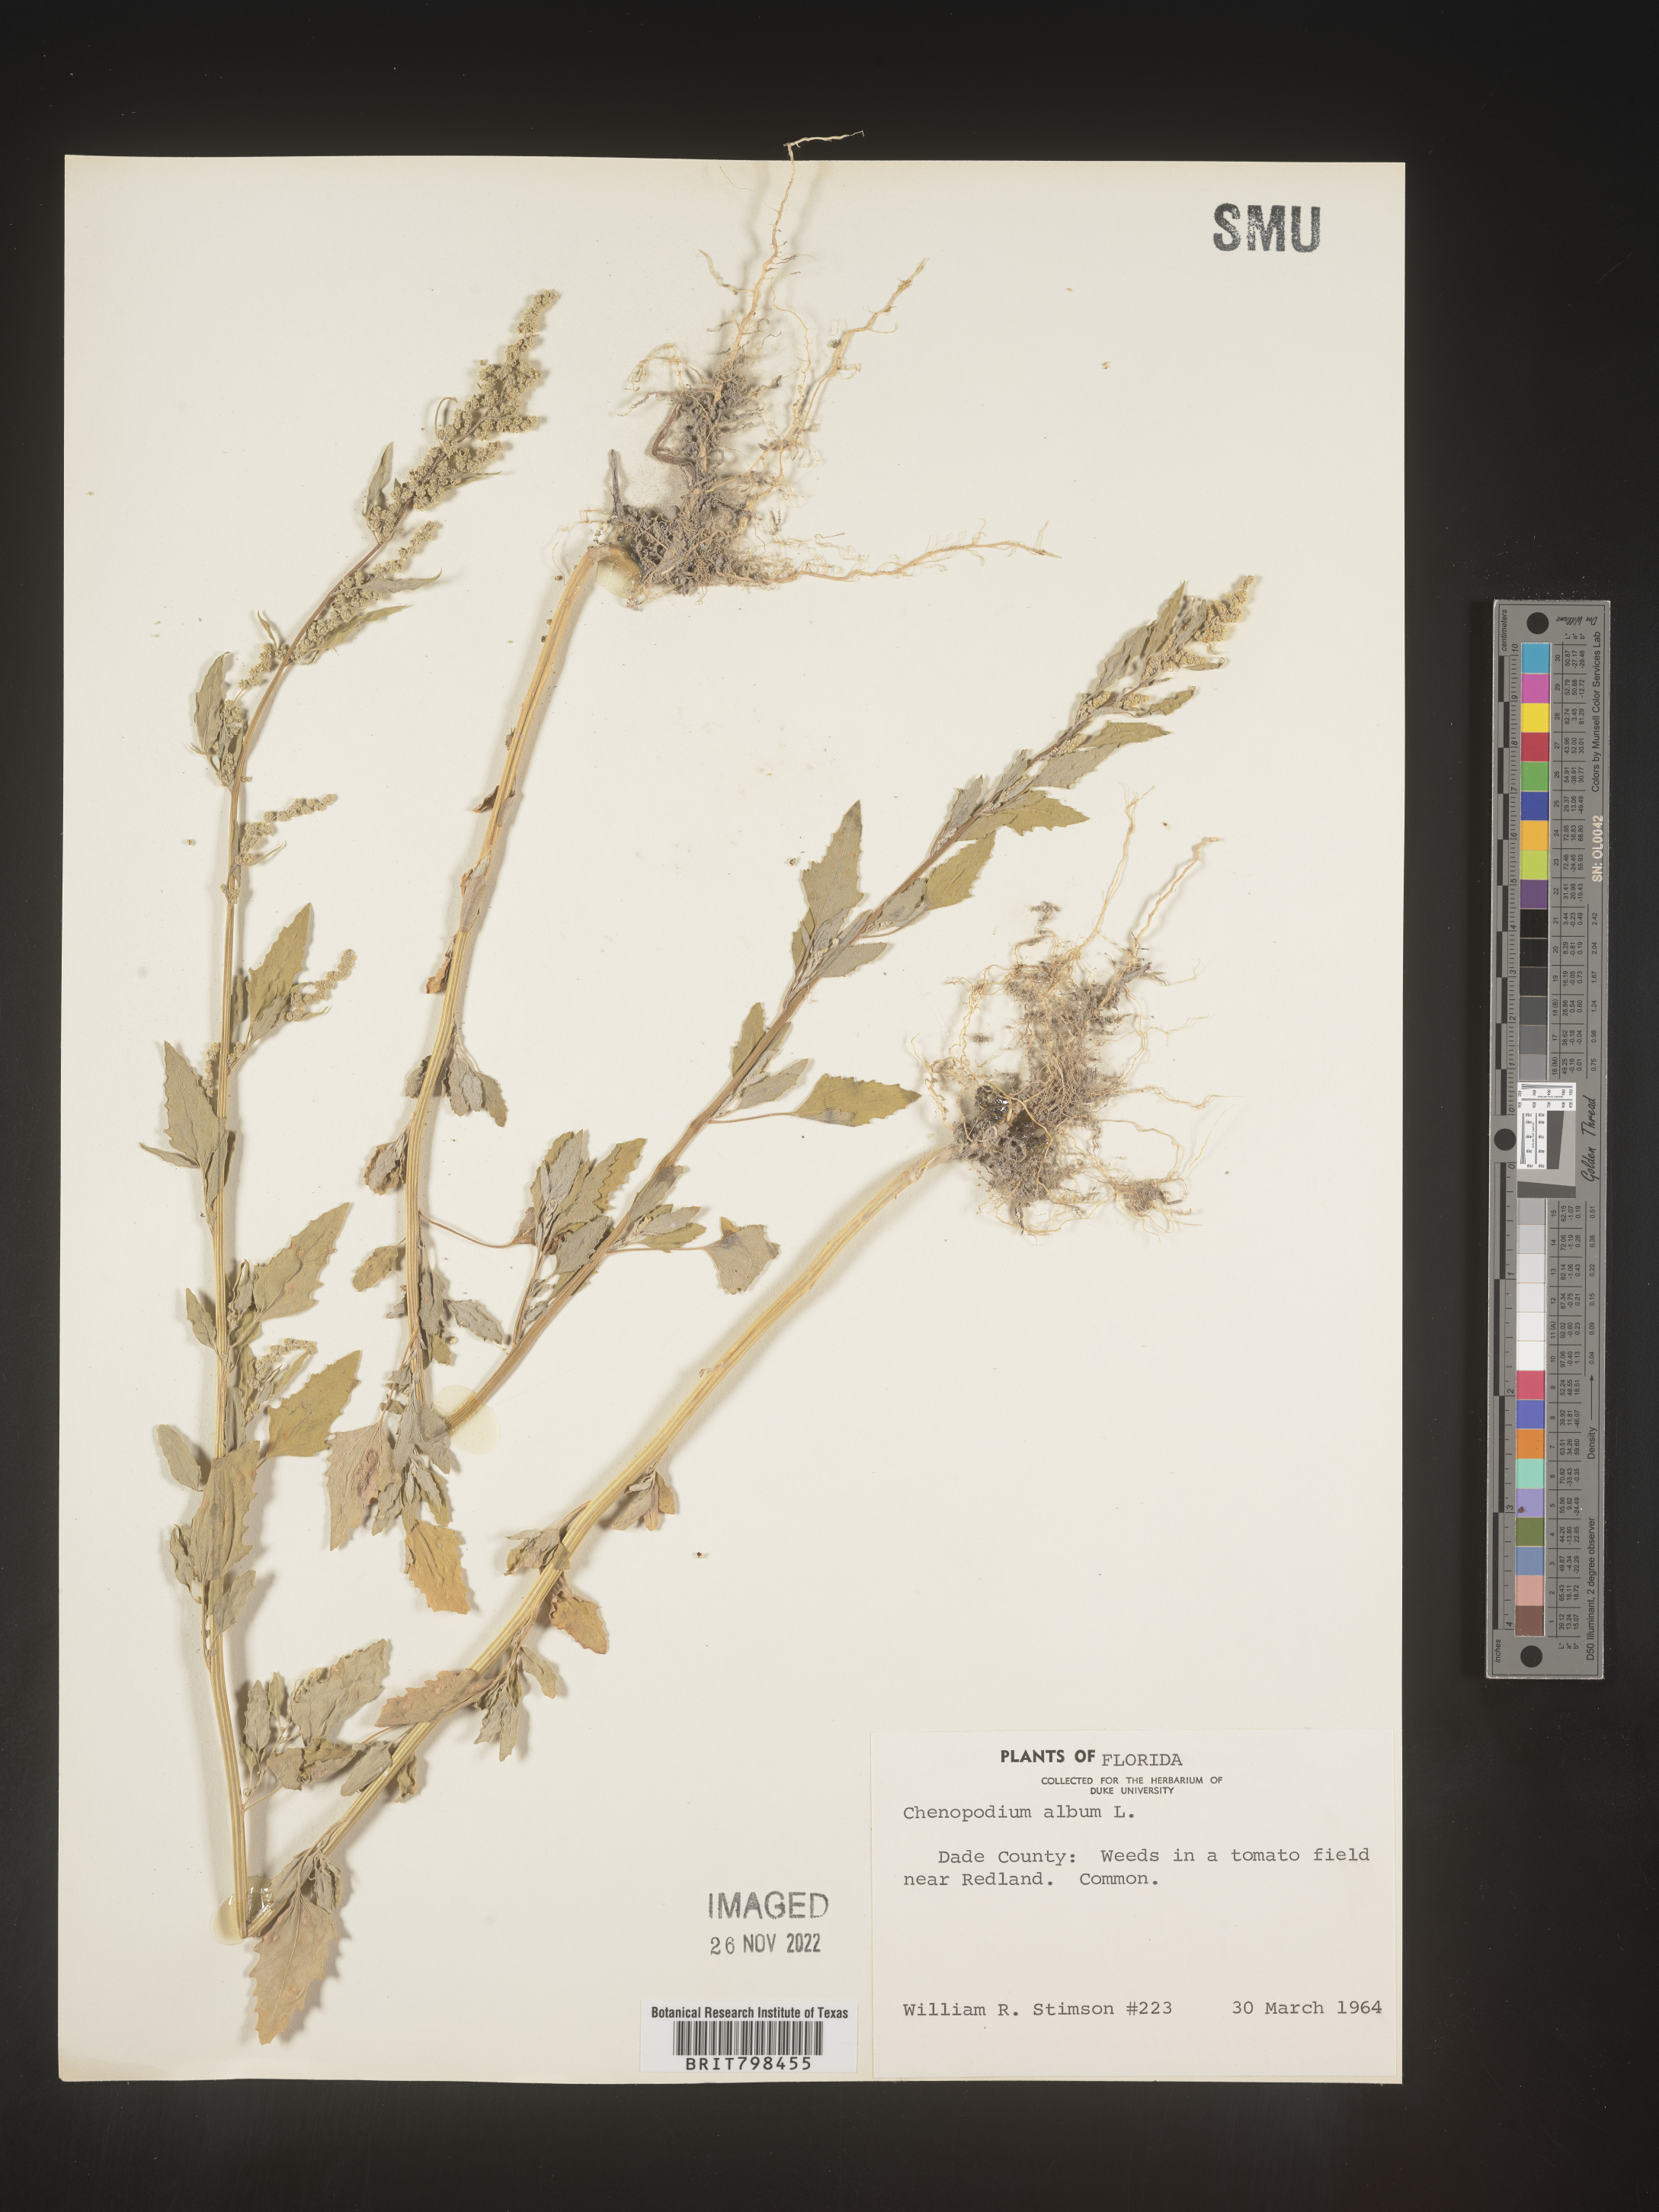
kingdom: Plantae
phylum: Tracheophyta
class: Magnoliopsida
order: Caryophyllales
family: Amaranthaceae
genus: Chenopodium
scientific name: Chenopodium album
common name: Fat-hen
